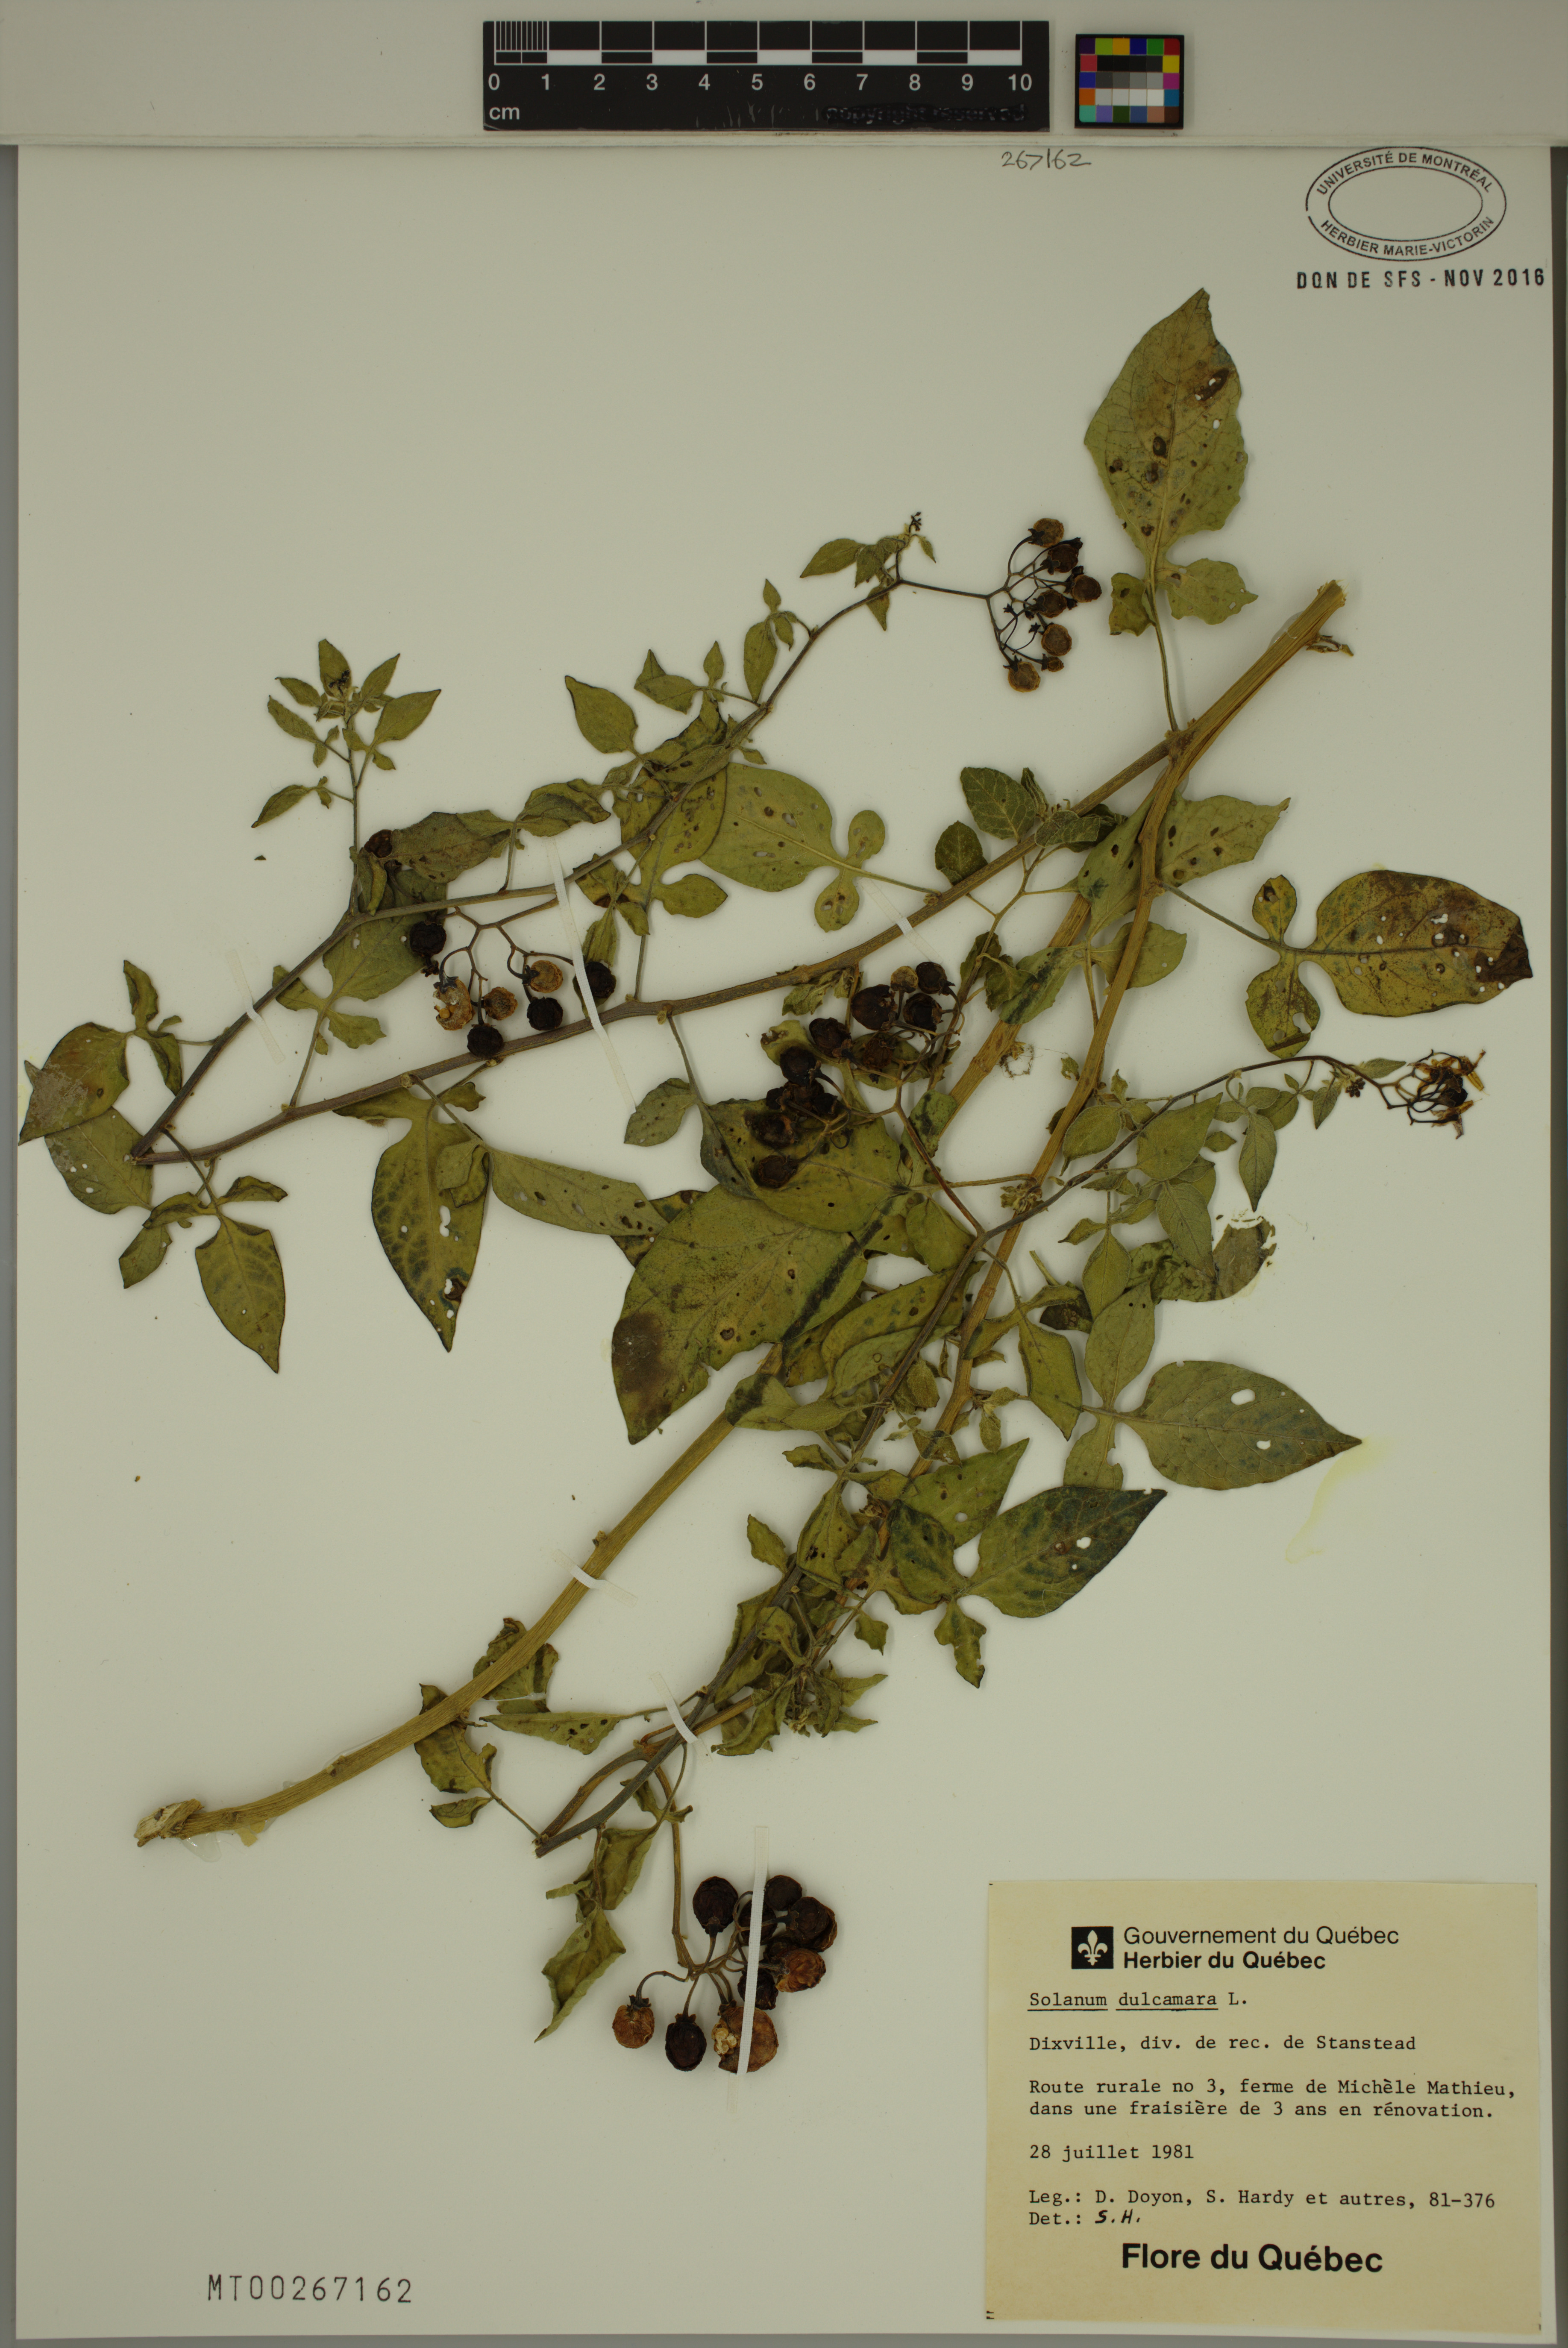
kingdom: Plantae
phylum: Tracheophyta
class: Magnoliopsida
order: Solanales
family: Solanaceae
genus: Solanum
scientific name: Solanum dulcamara
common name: Climbing nightshade
